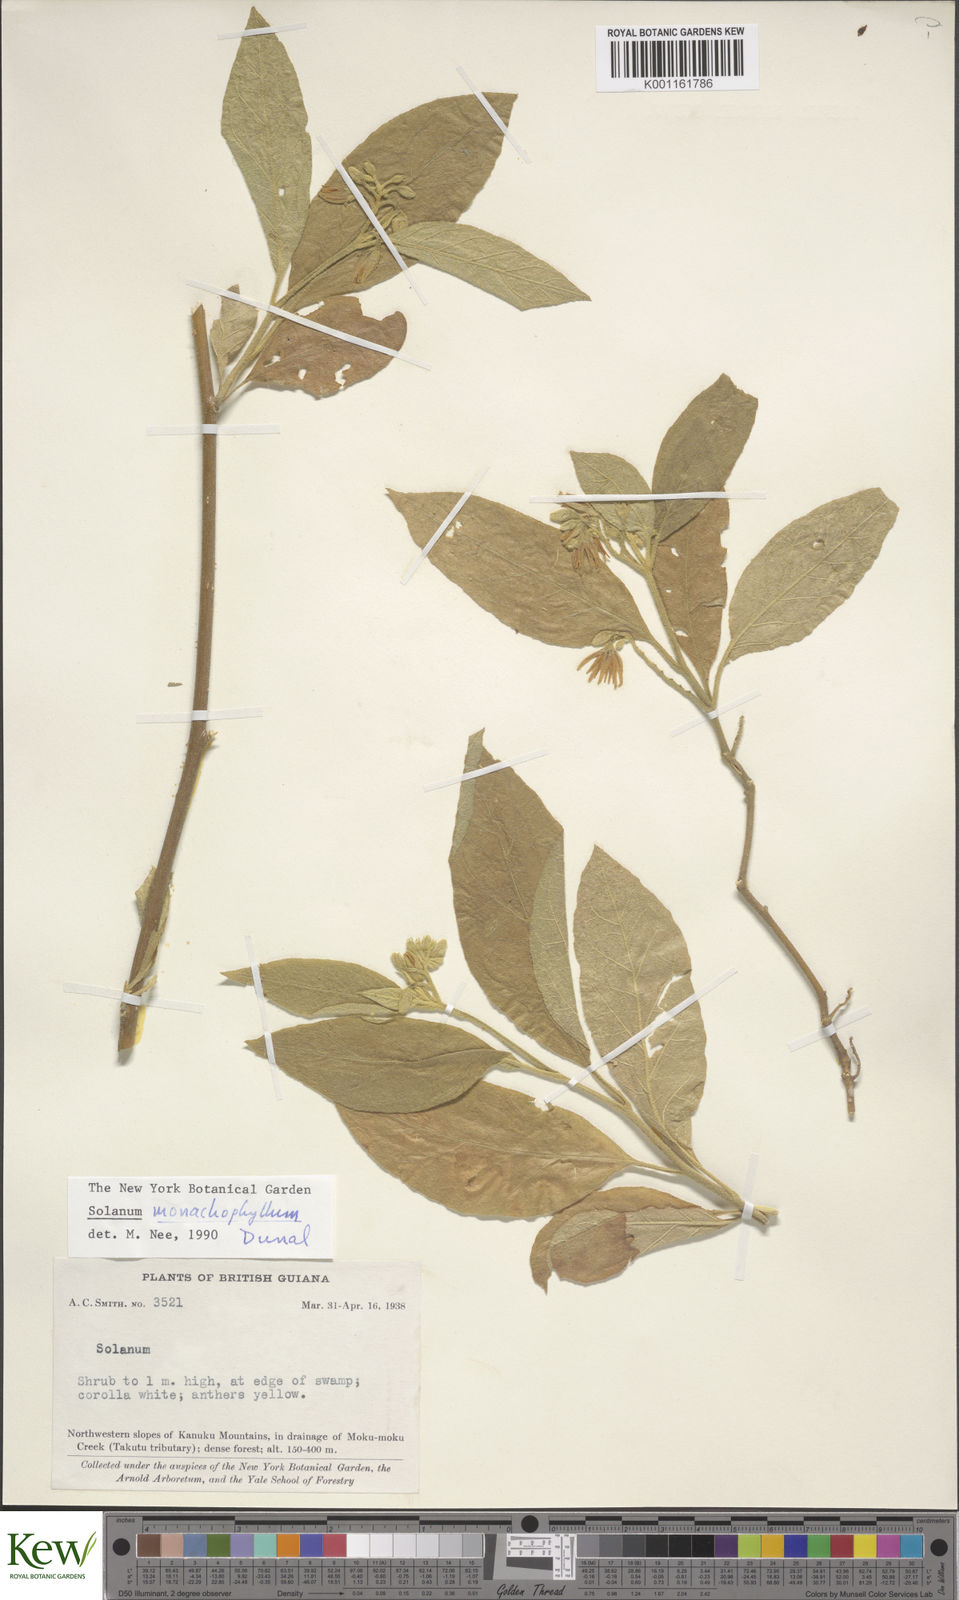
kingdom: Plantae
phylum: Tracheophyta
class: Magnoliopsida
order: Solanales
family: Solanaceae
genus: Solanum
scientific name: Solanum monachophyllum
